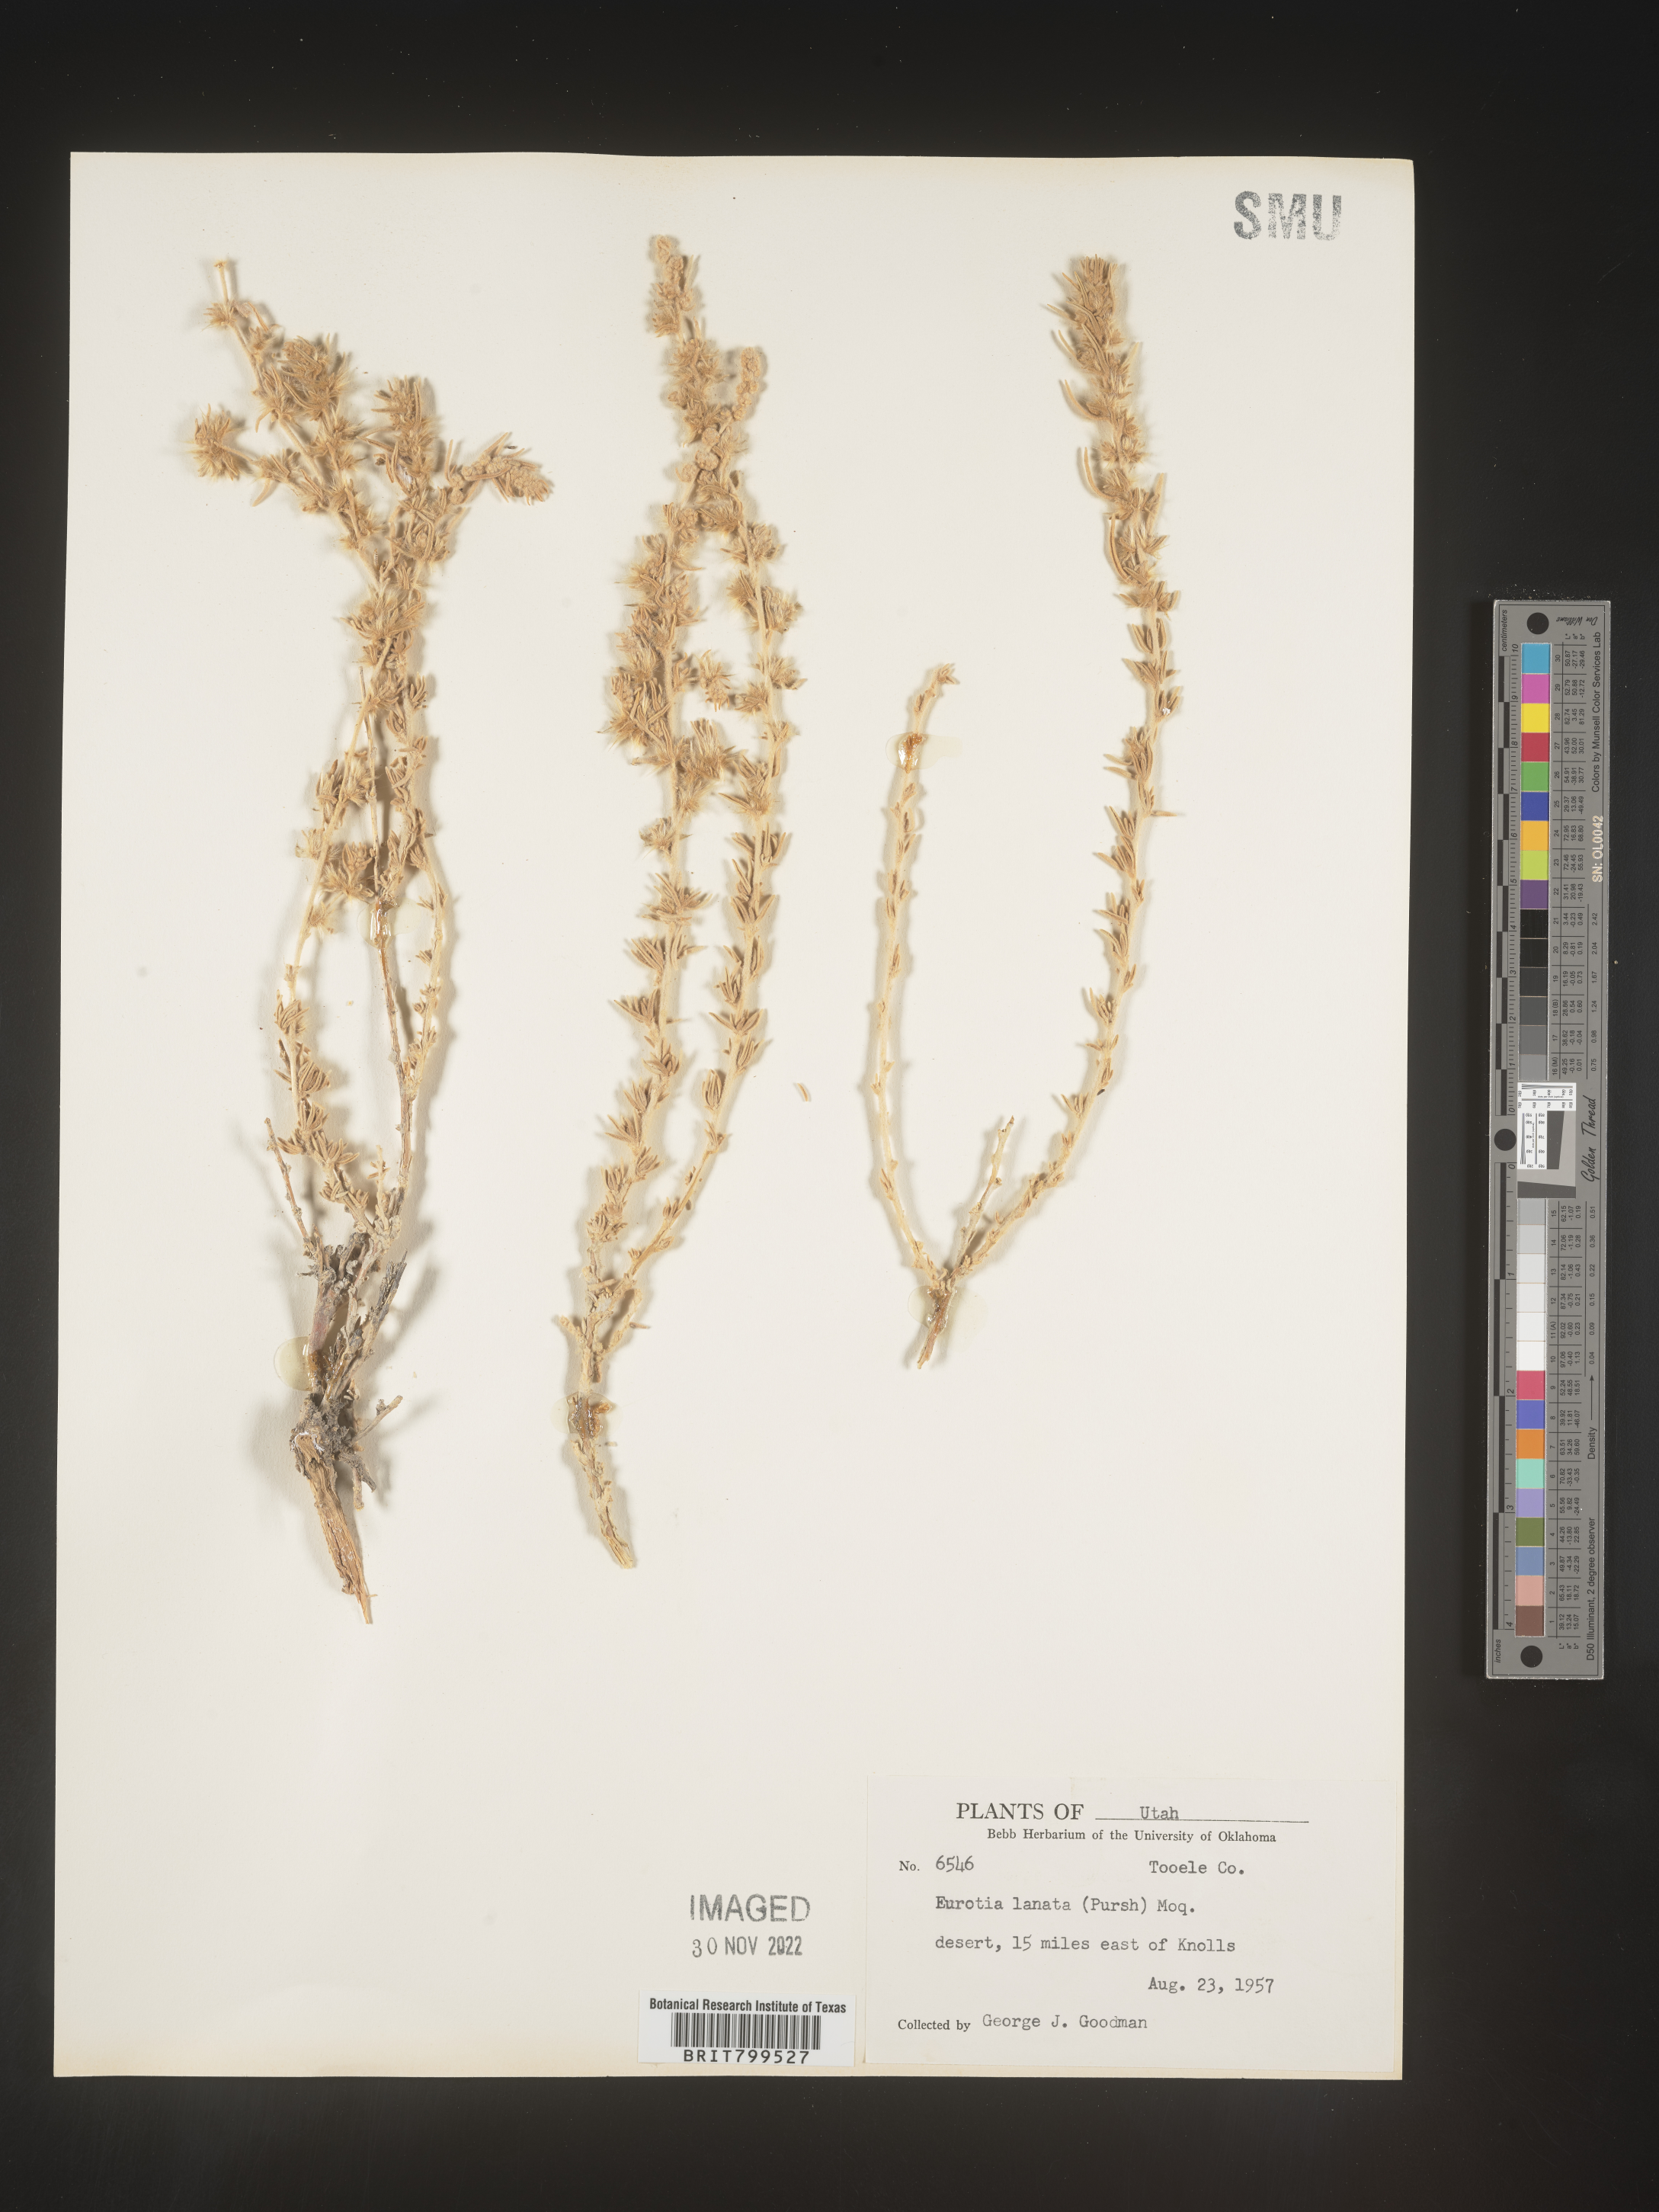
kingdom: Plantae
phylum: Tracheophyta
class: Magnoliopsida
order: Caryophyllales
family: Amaranthaceae
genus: Krascheninnikovia
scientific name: Krascheninnikovia
